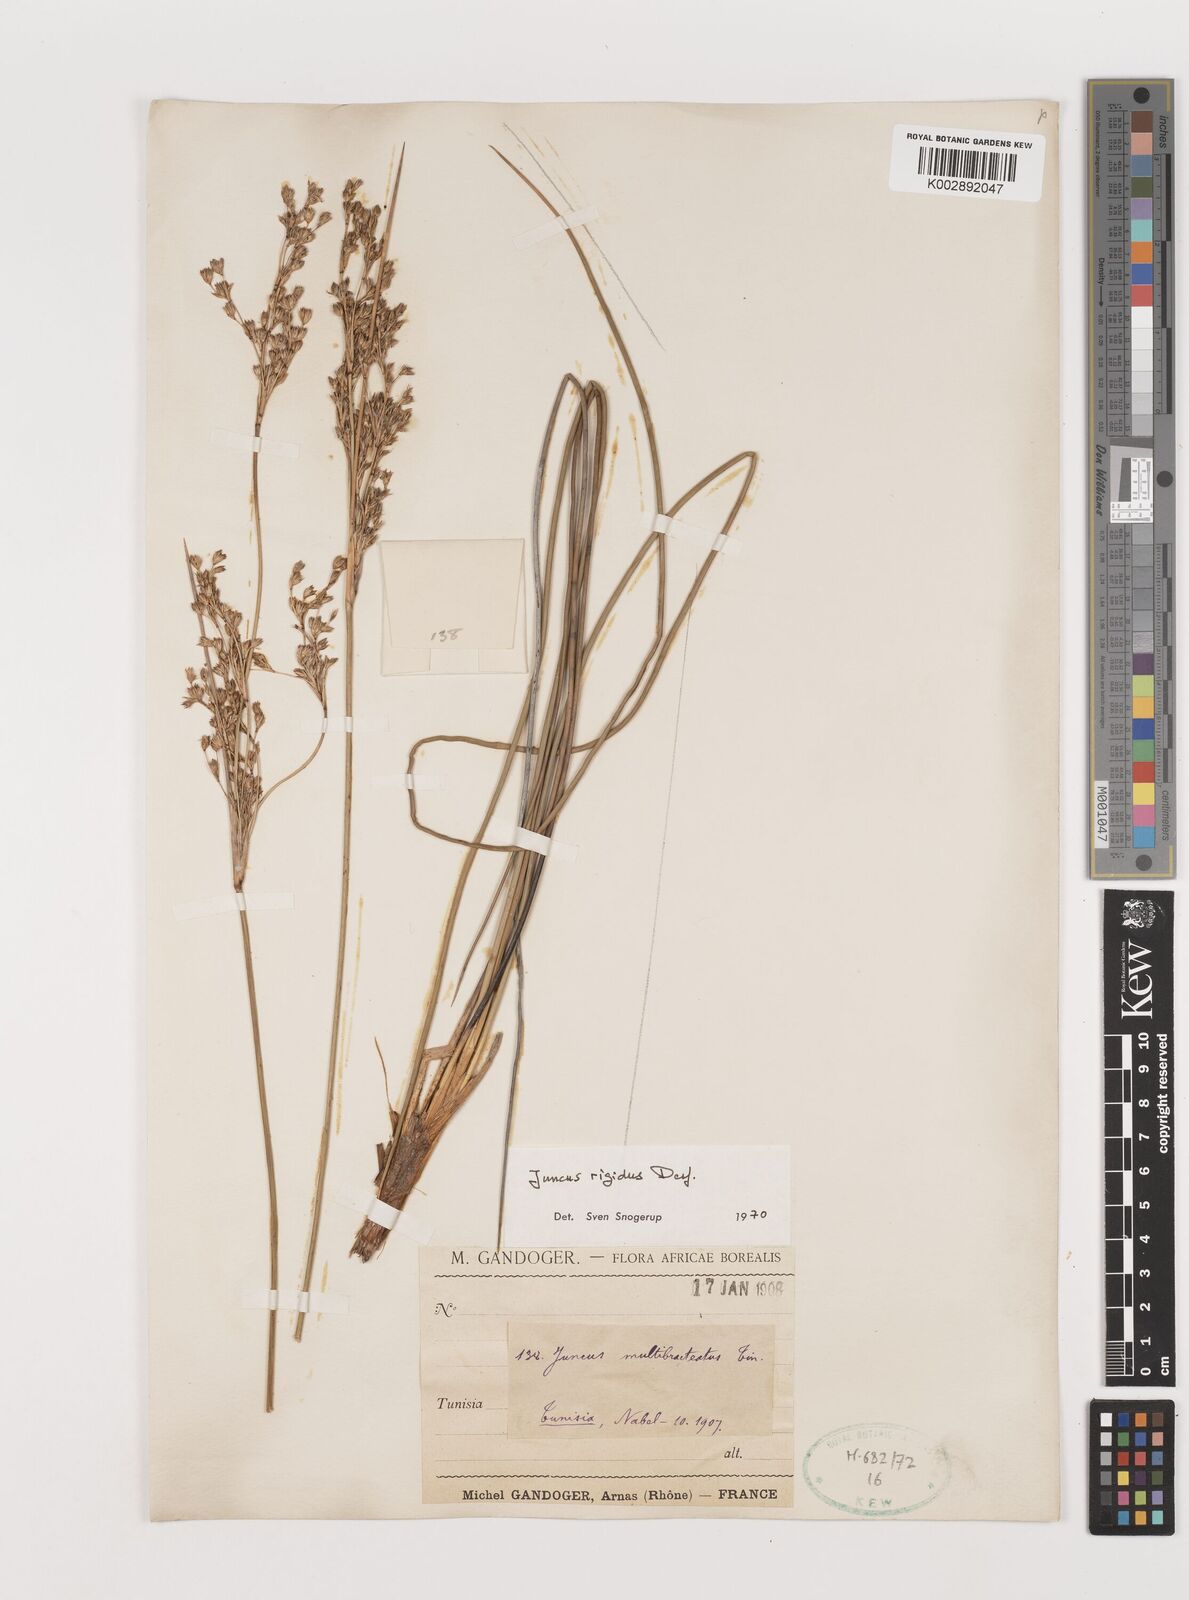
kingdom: Plantae
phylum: Tracheophyta
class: Liliopsida
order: Poales
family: Juncaceae
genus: Juncus
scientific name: Juncus rigidus
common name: Hard sea rush
